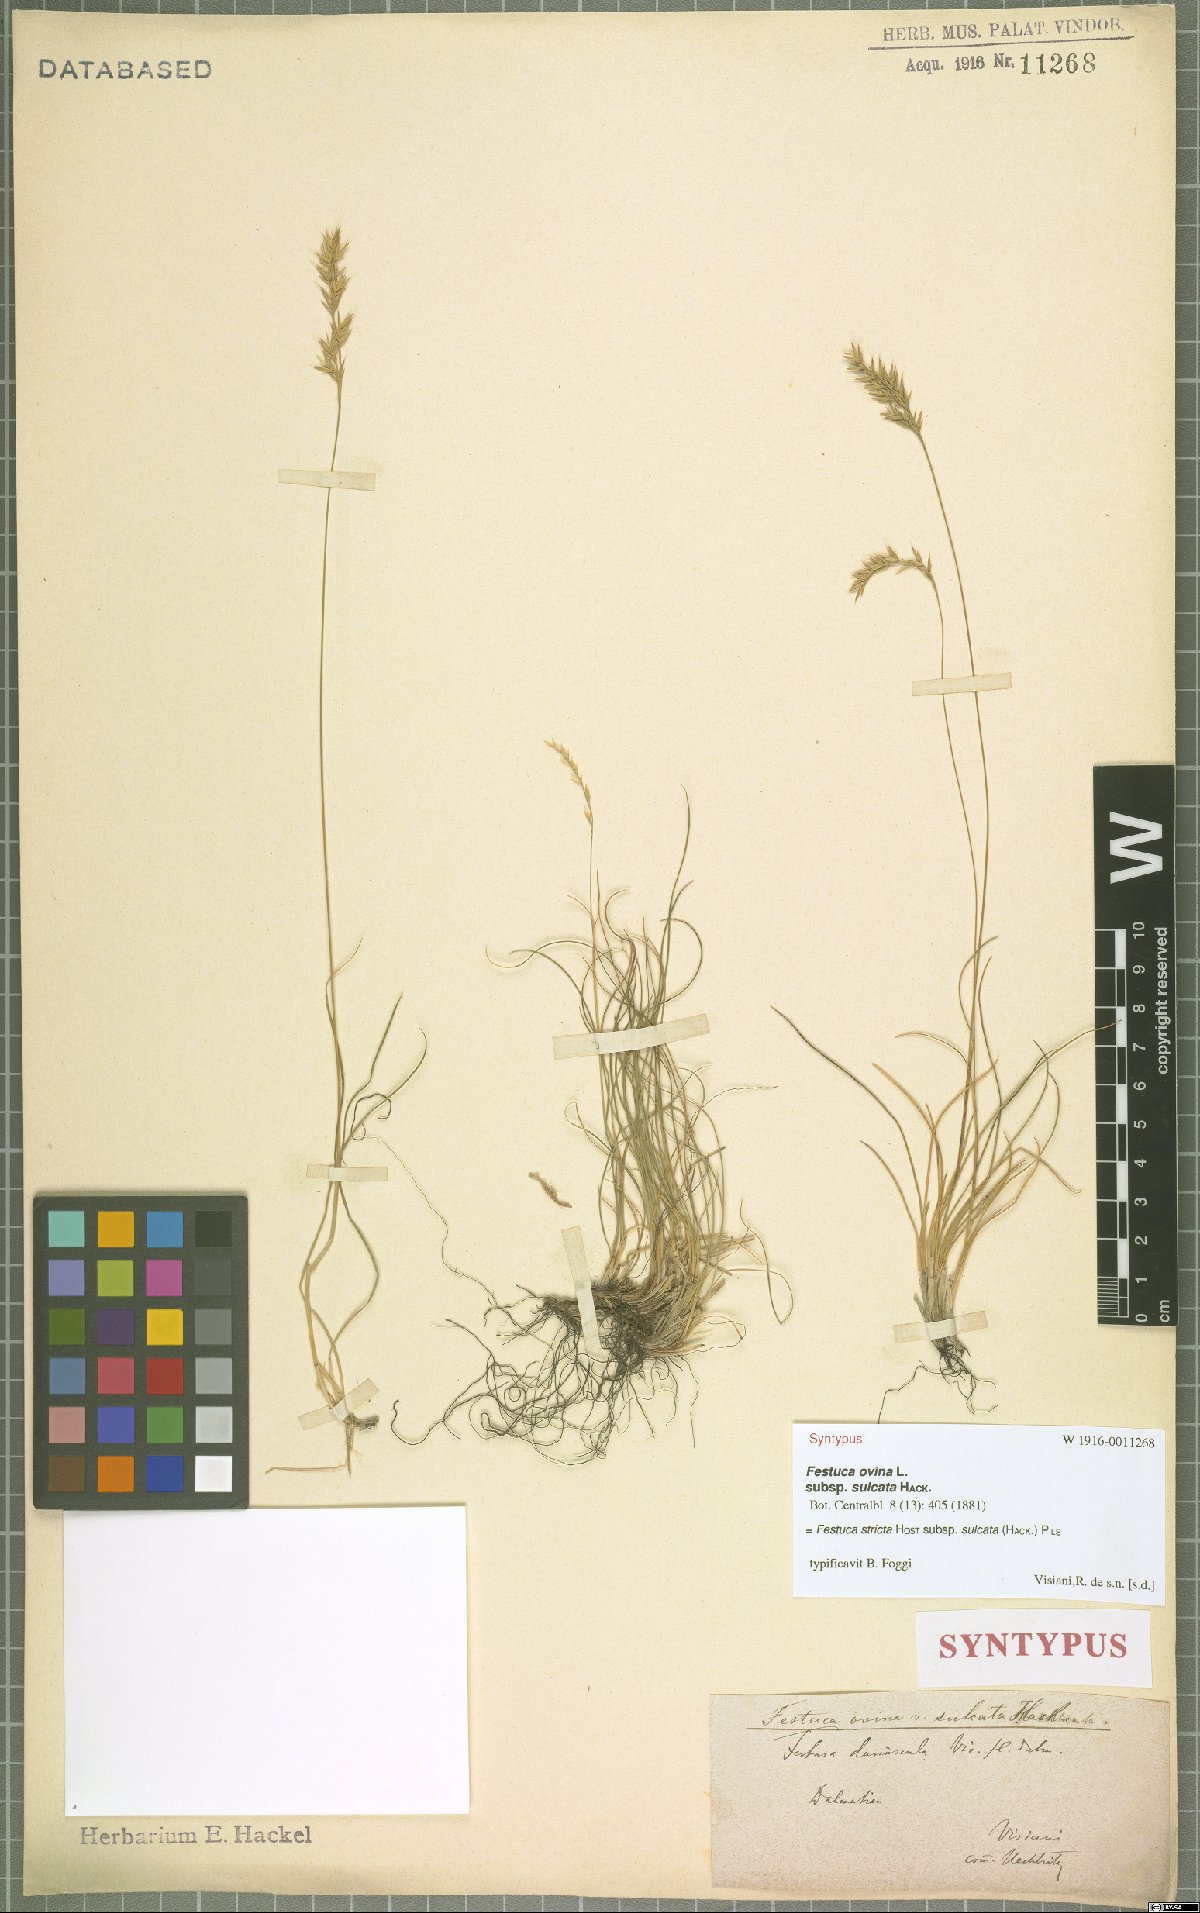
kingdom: Plantae
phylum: Tracheophyta
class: Liliopsida
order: Poales
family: Poaceae
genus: Festuca
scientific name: Festuca rupicola
